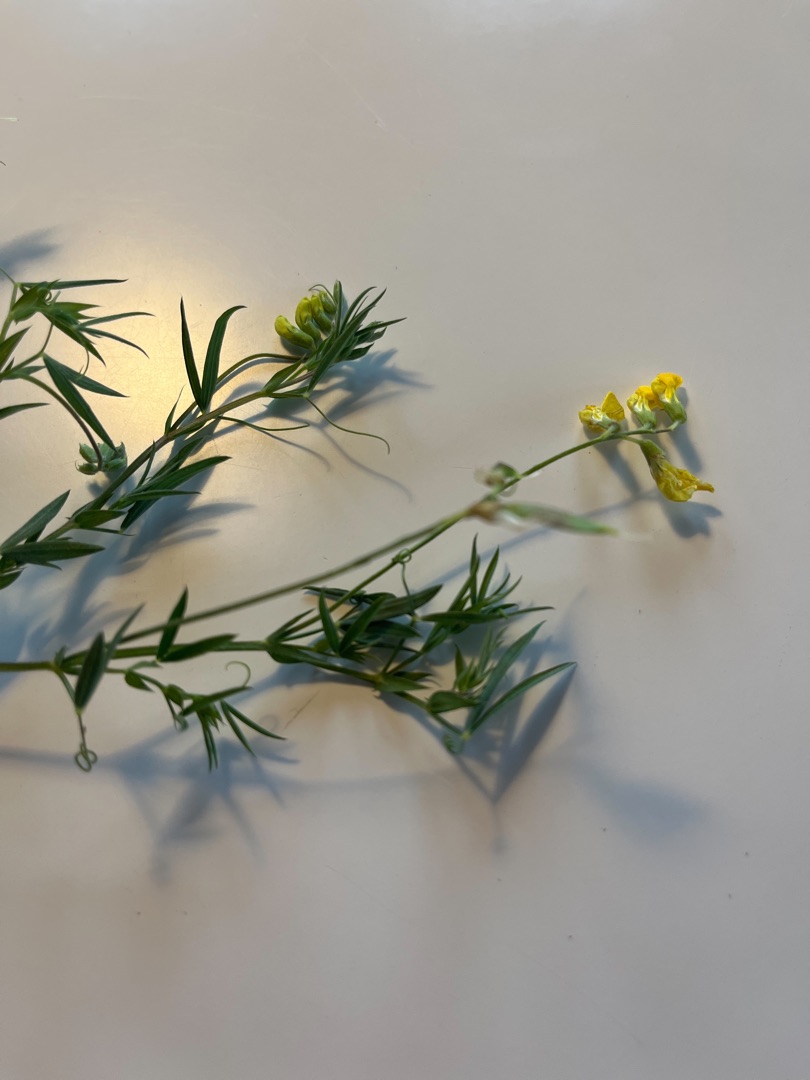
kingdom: Plantae
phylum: Tracheophyta
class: Magnoliopsida
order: Fabales
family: Fabaceae
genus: Lathyrus
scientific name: Lathyrus pratensis
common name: Gul fladbælg
